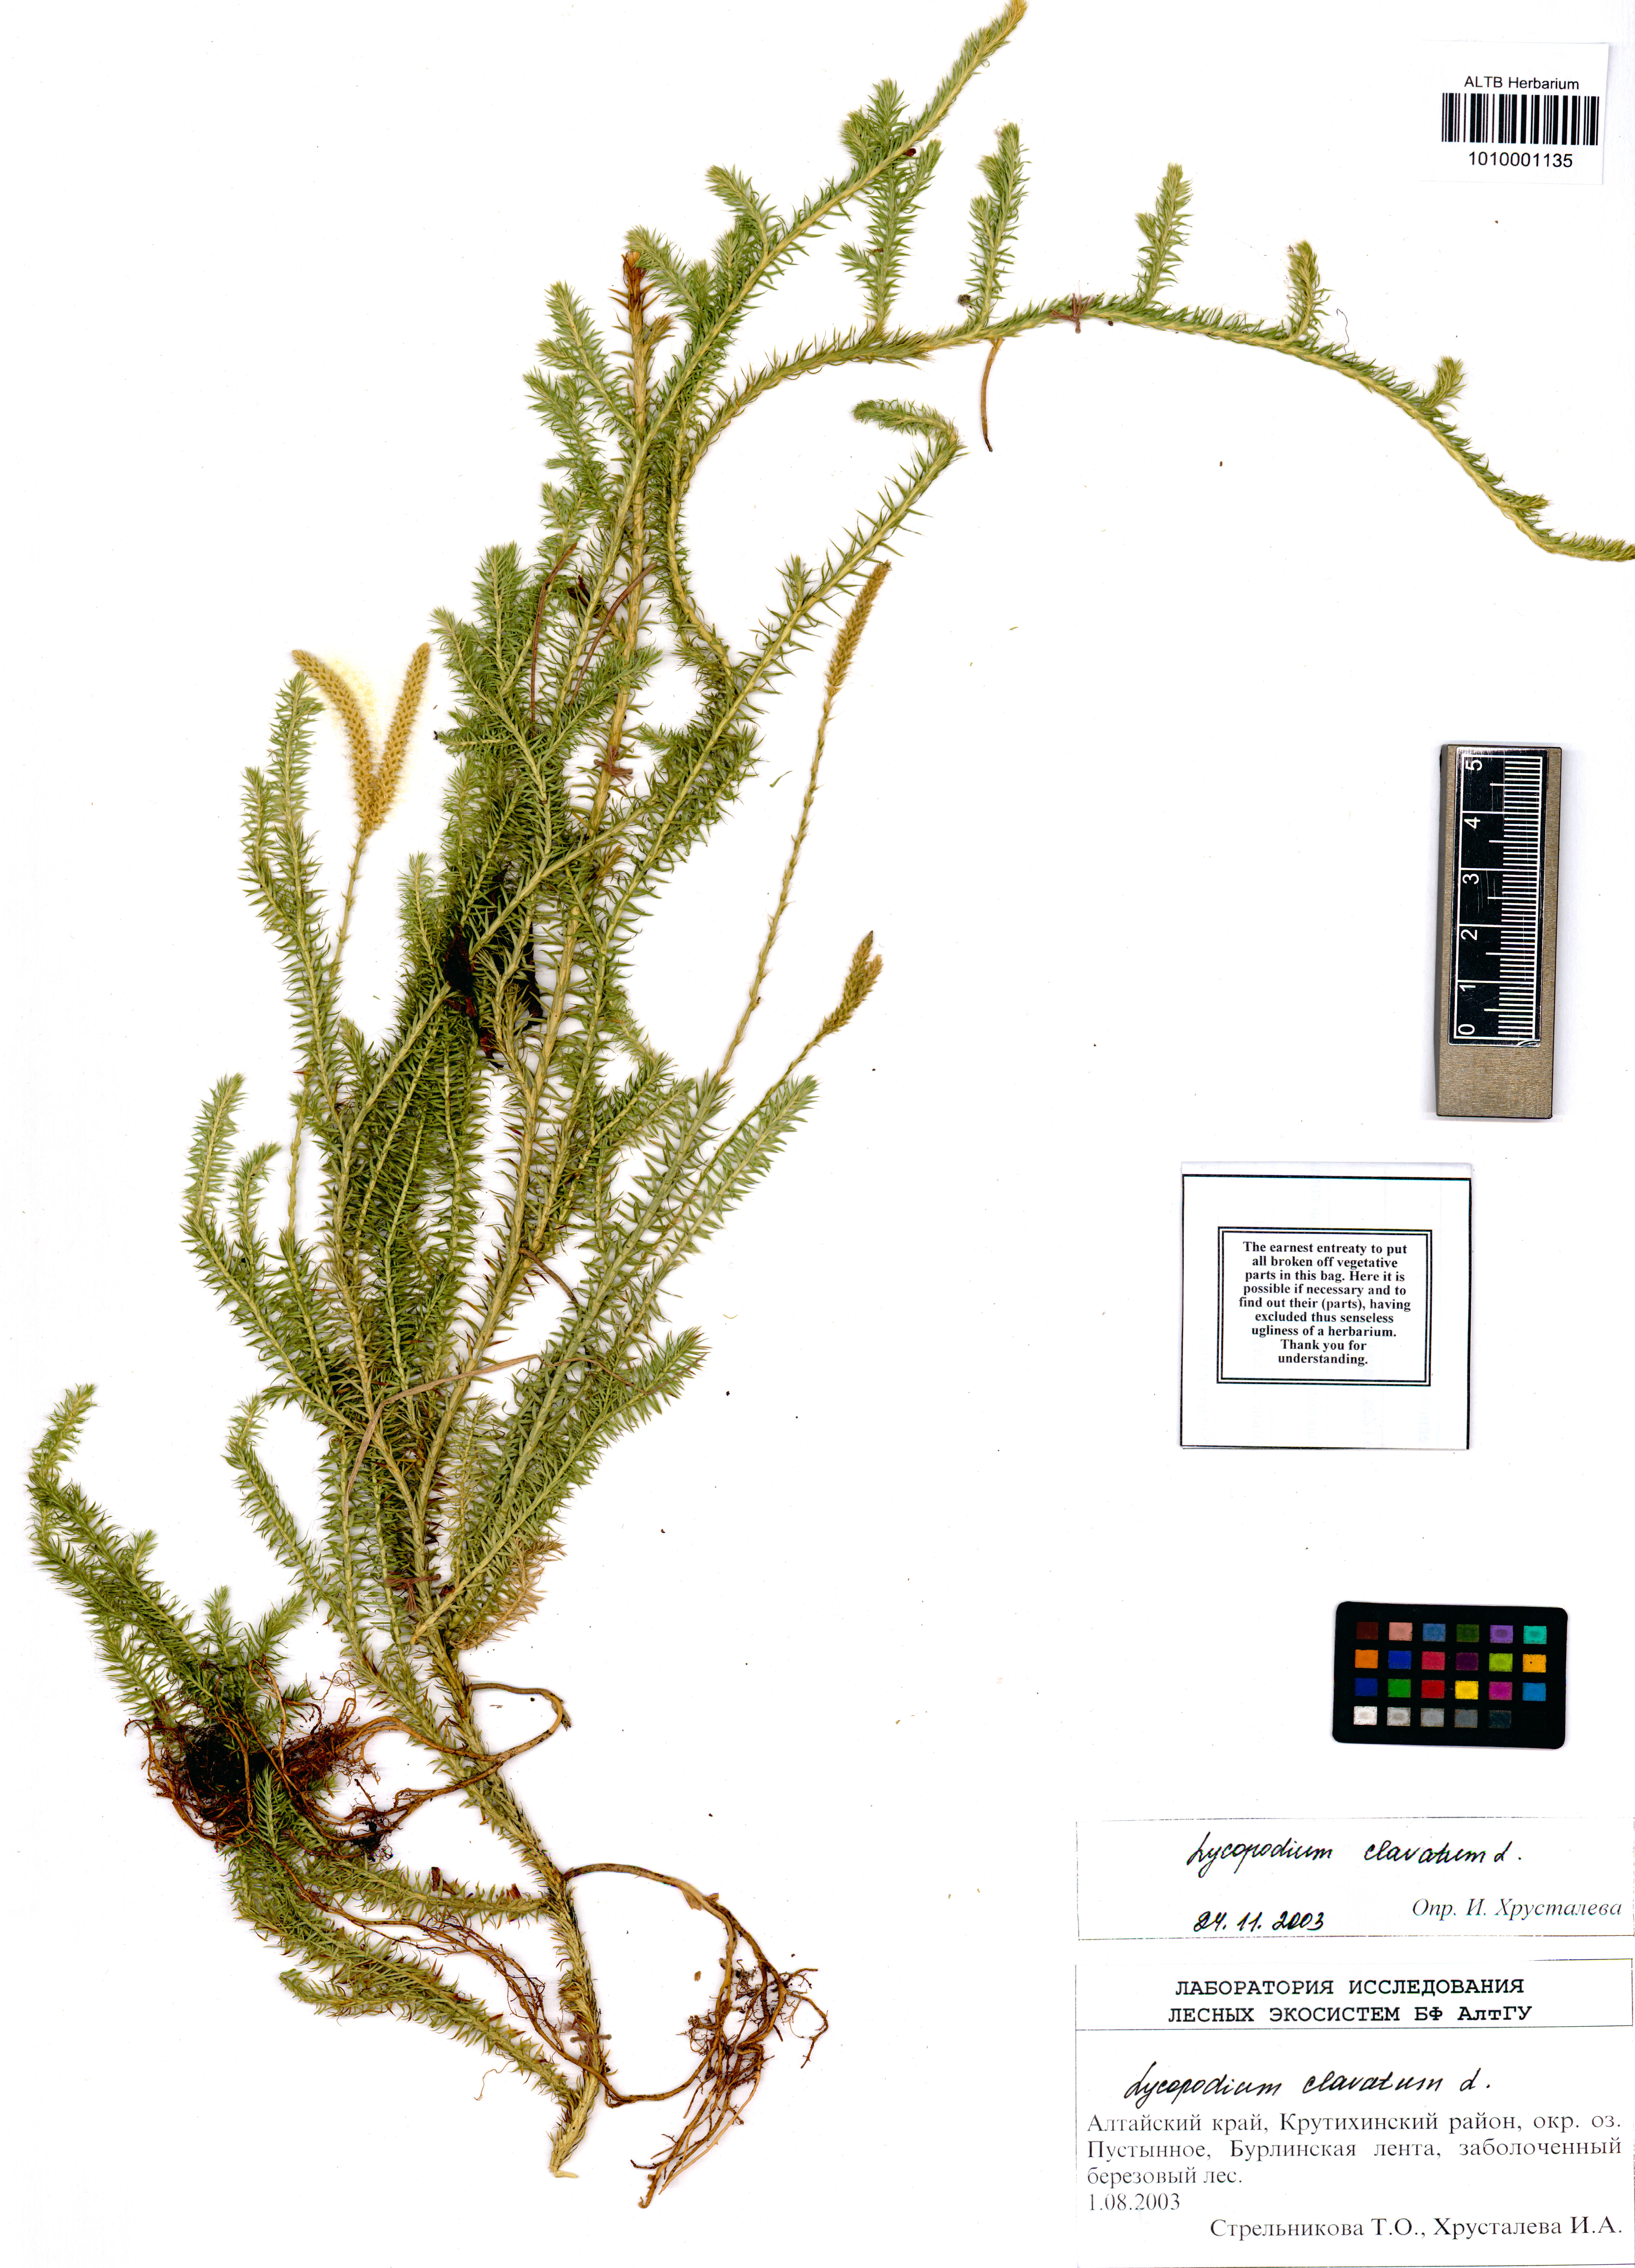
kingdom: Plantae
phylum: Tracheophyta
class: Lycopodiopsida
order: Lycopodiales
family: Lycopodiaceae
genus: Lycopodium
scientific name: Lycopodium clavatum
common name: Stag's-horn clubmoss
